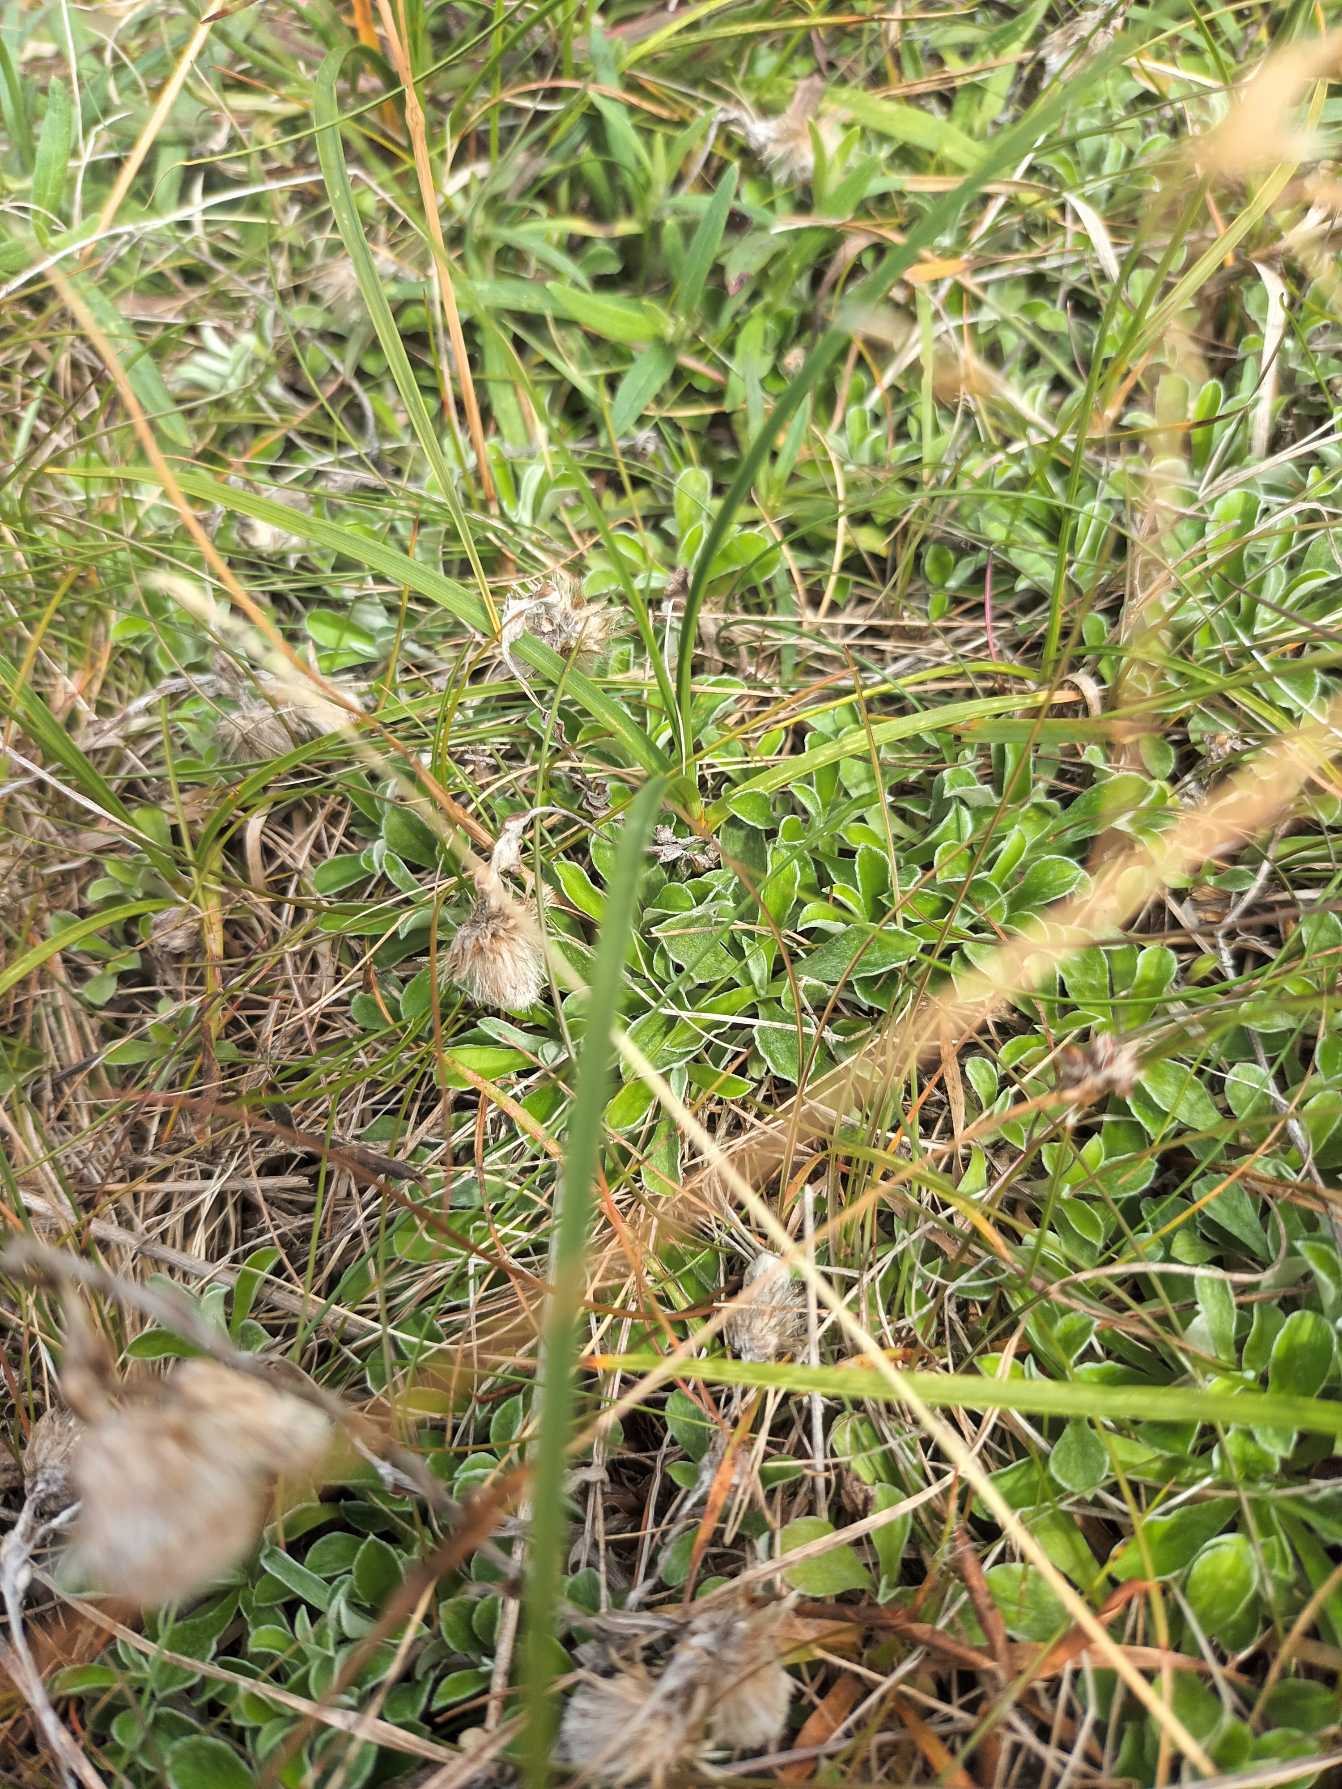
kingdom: Plantae
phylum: Tracheophyta
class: Magnoliopsida
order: Asterales
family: Asteraceae
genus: Antennaria
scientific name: Antennaria dioica
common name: Kattefod
